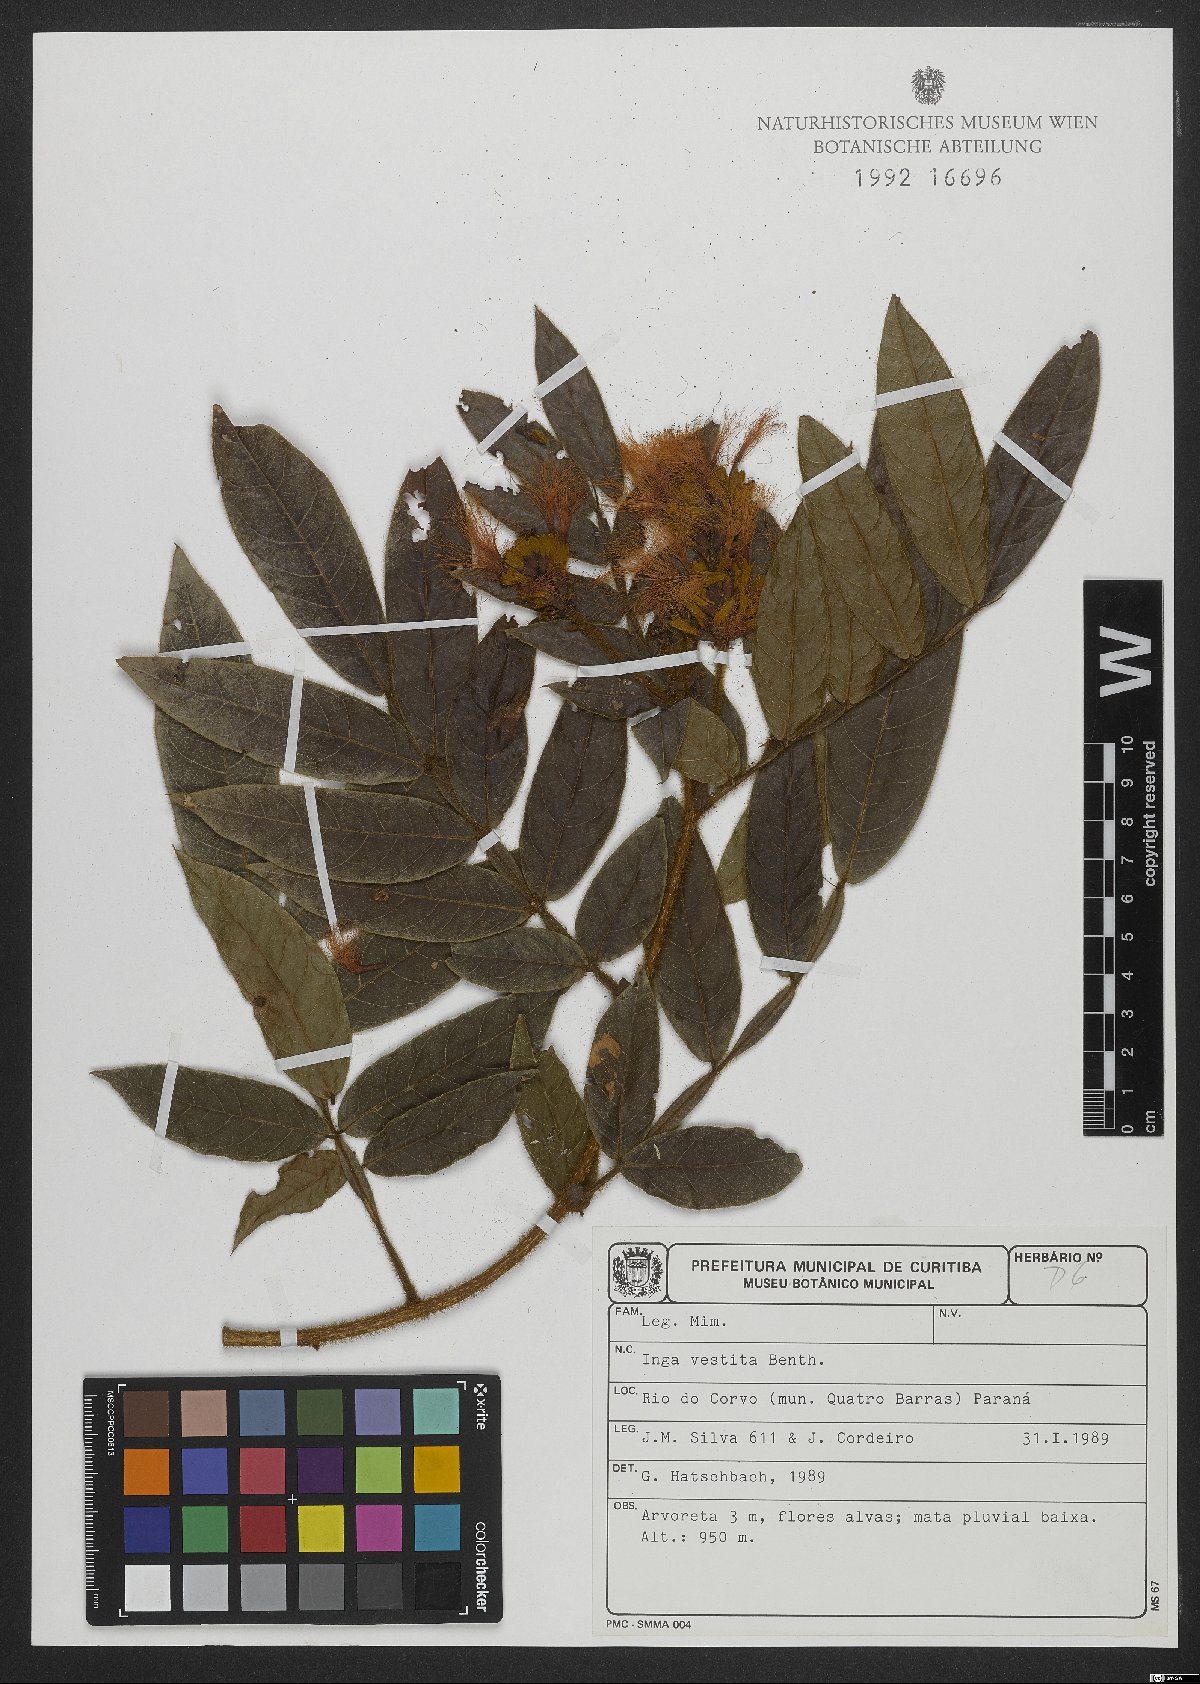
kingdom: Plantae
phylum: Tracheophyta
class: Magnoliopsida
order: Fabales
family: Fabaceae
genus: Inga
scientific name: Inga vestita
